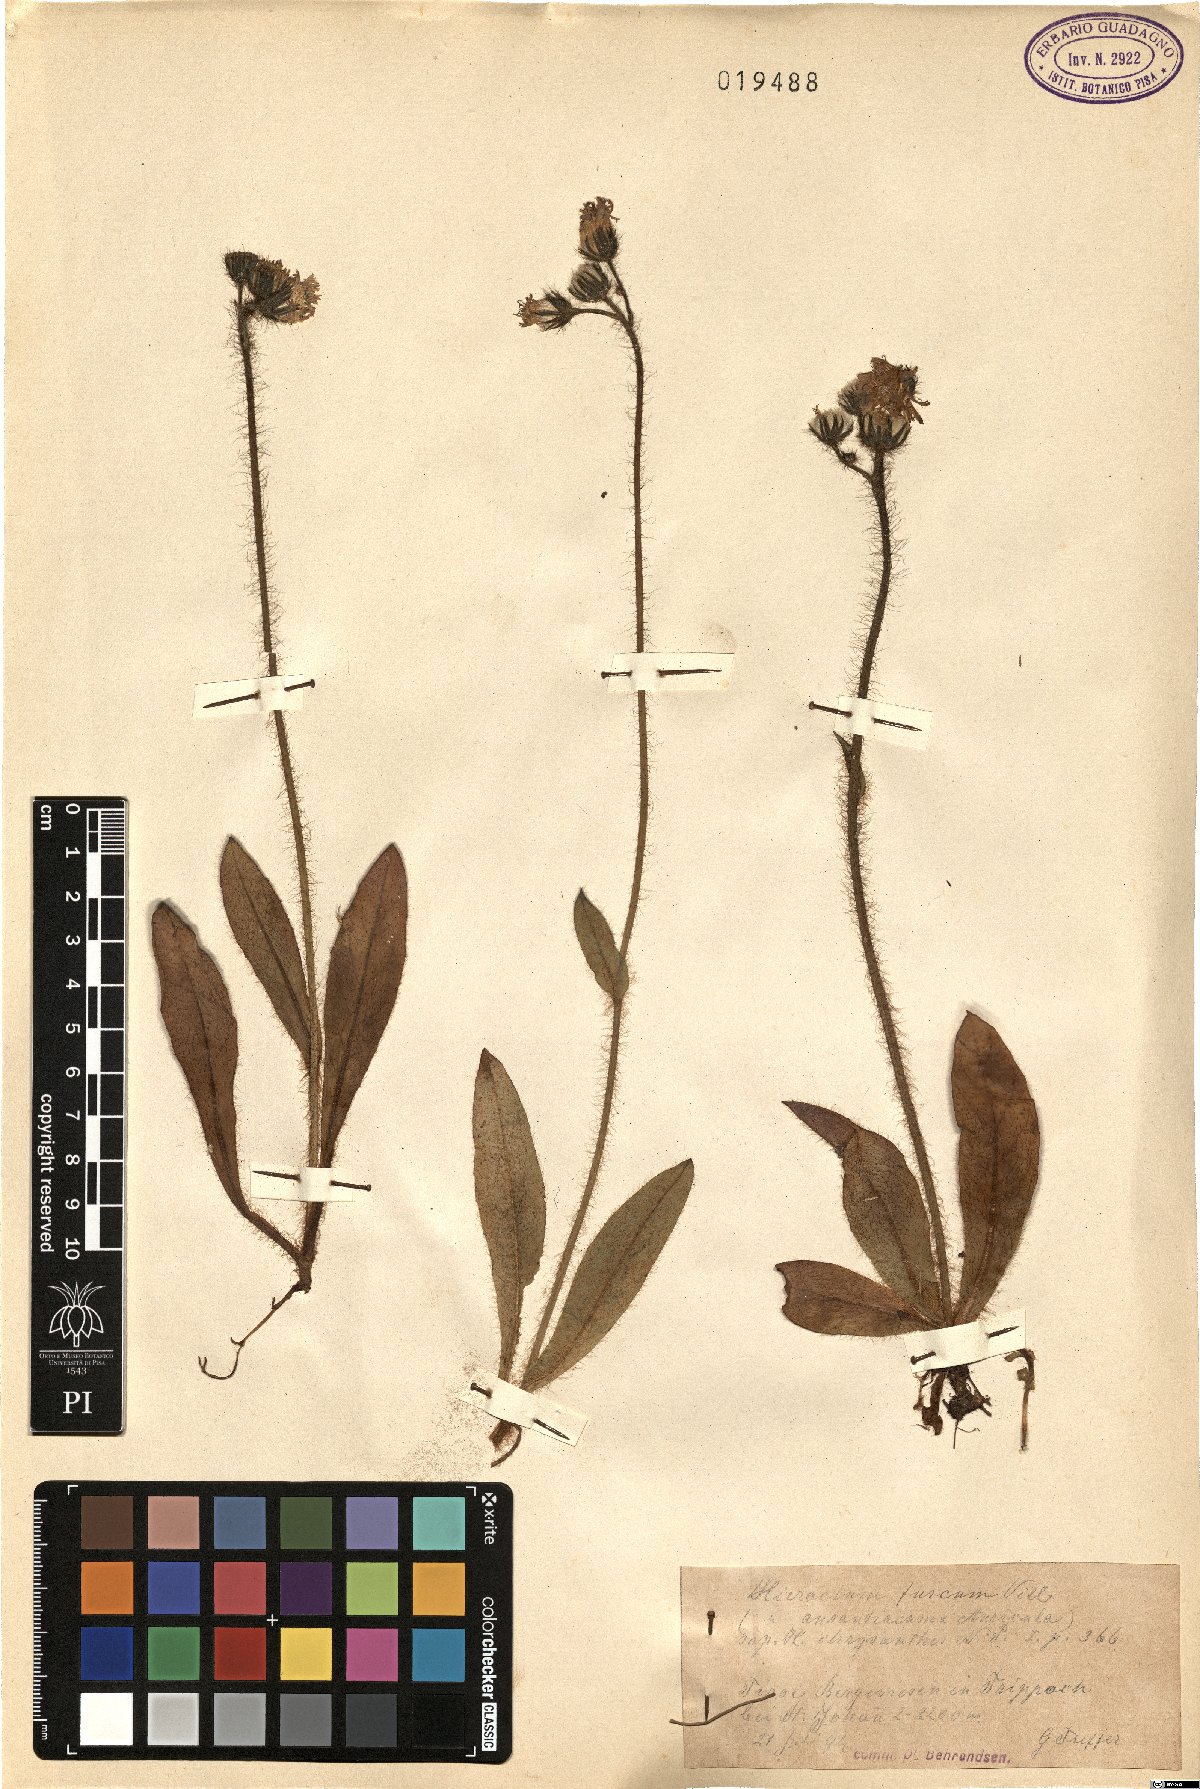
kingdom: Plantae
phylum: Tracheophyta
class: Magnoliopsida
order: Asterales
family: Asteraceae
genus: Pilosella
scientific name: Pilosella fusca
